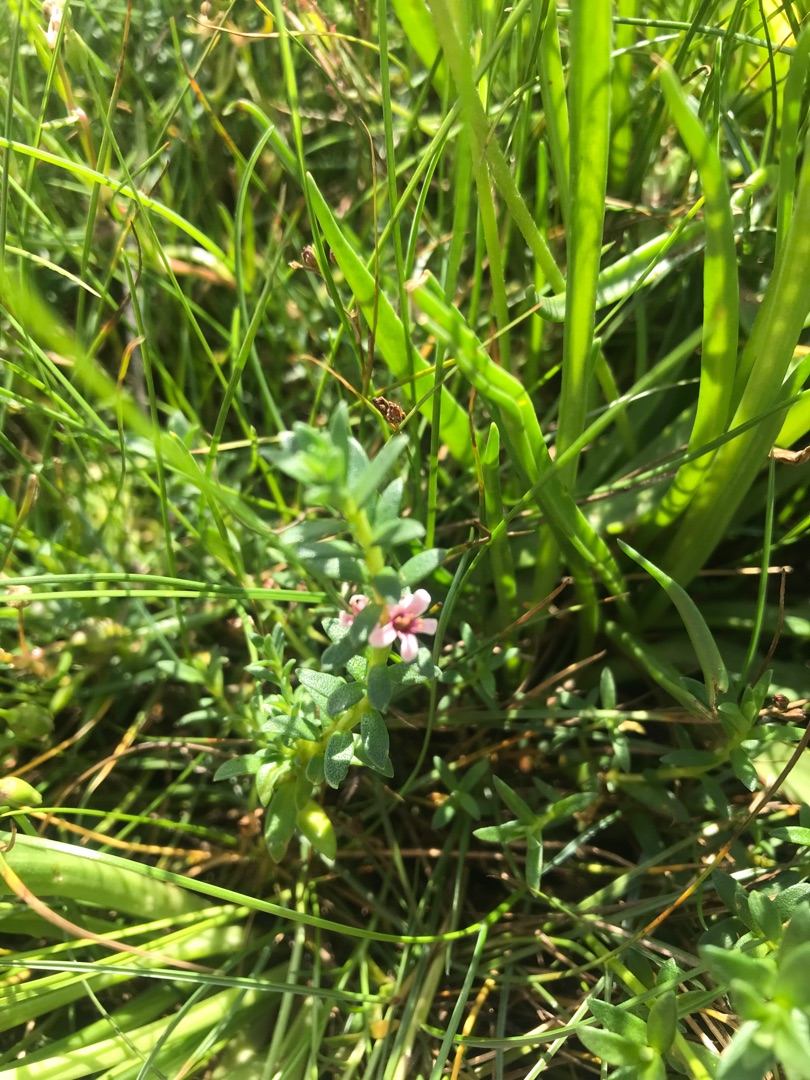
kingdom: Plantae
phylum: Tracheophyta
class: Magnoliopsida
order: Ericales
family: Primulaceae
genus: Lysimachia
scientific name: Lysimachia maritima
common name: Sandkryb
